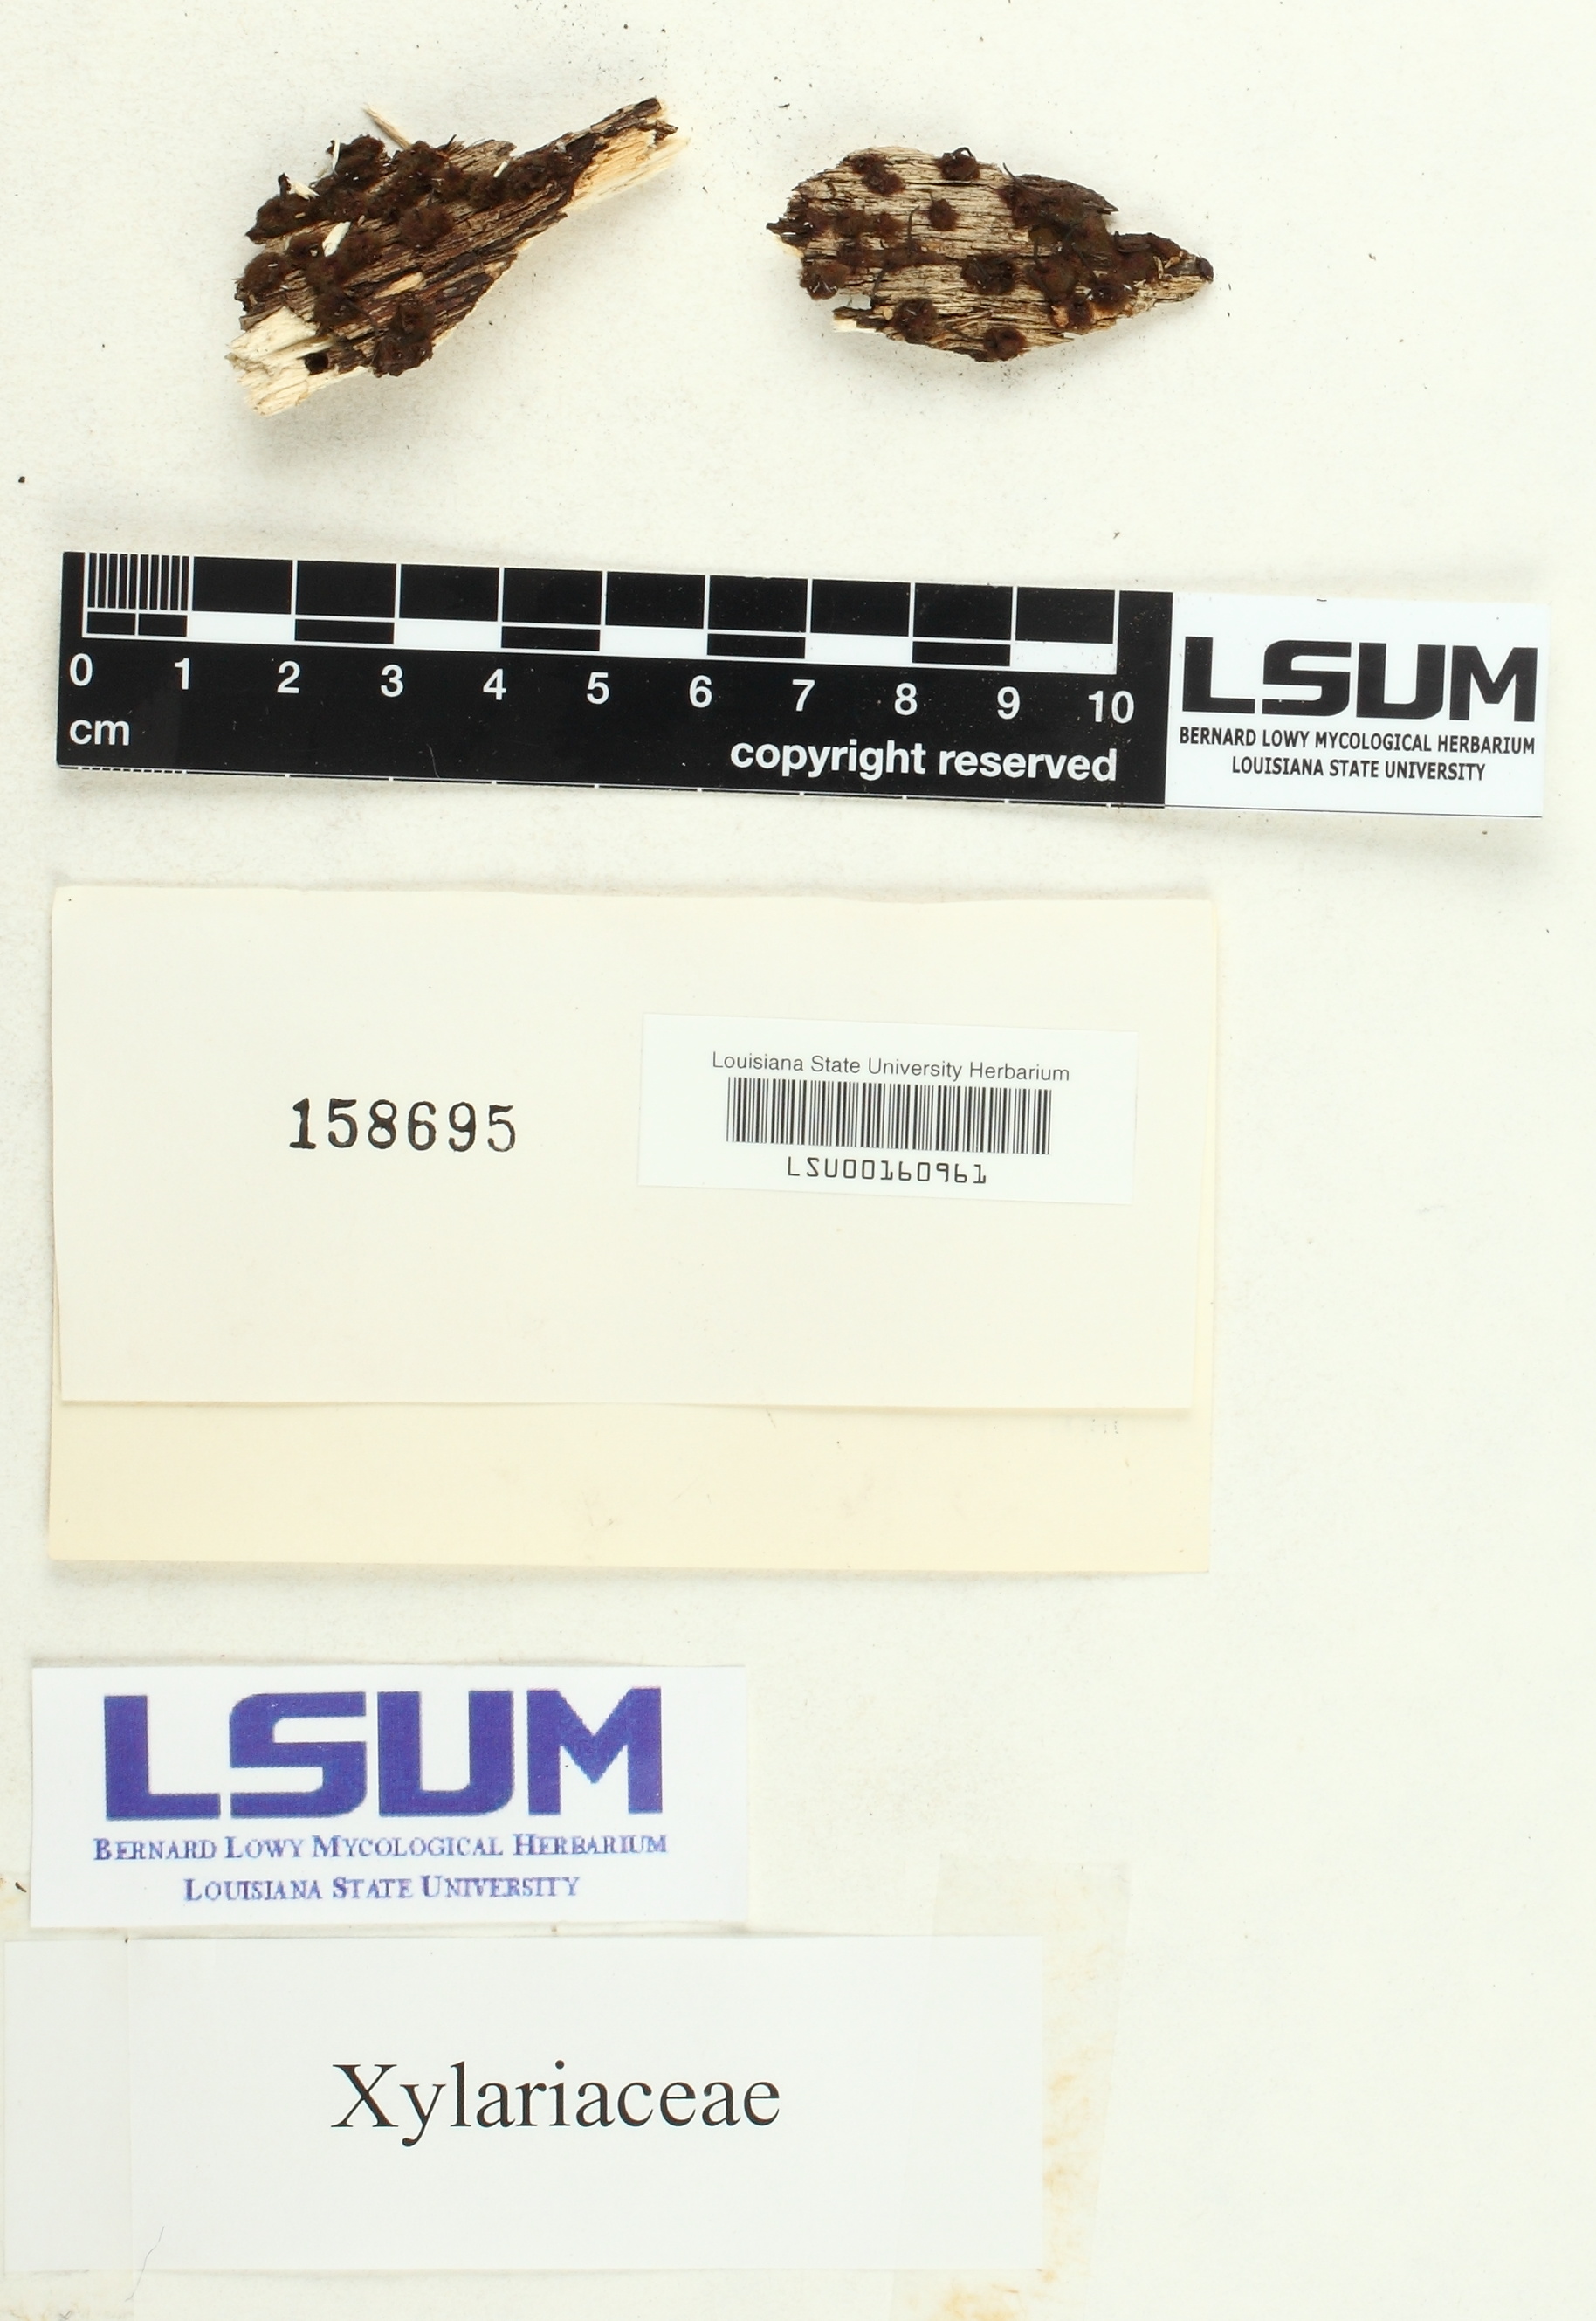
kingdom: Fungi
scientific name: Fungi
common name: Fungi
